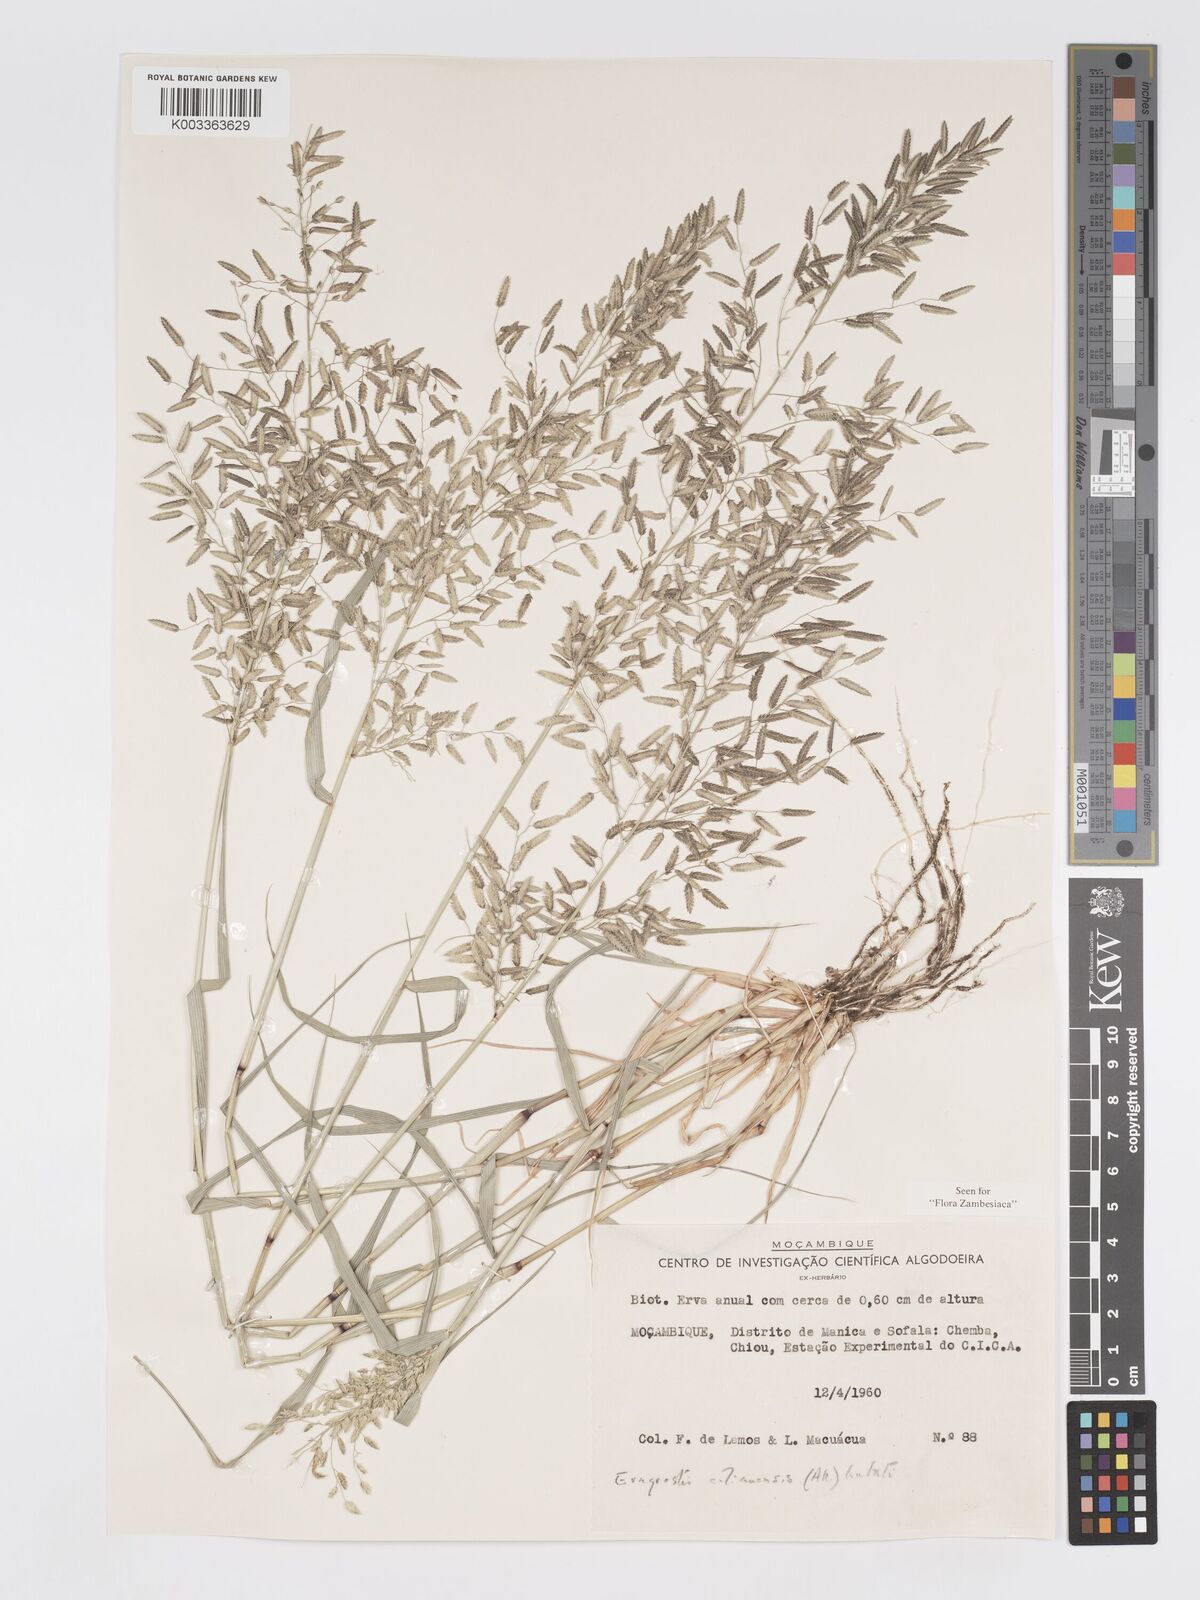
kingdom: Plantae
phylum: Tracheophyta
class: Liliopsida
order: Poales
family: Poaceae
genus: Eragrostis
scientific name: Eragrostis cilianensis
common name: Stinkgrass
